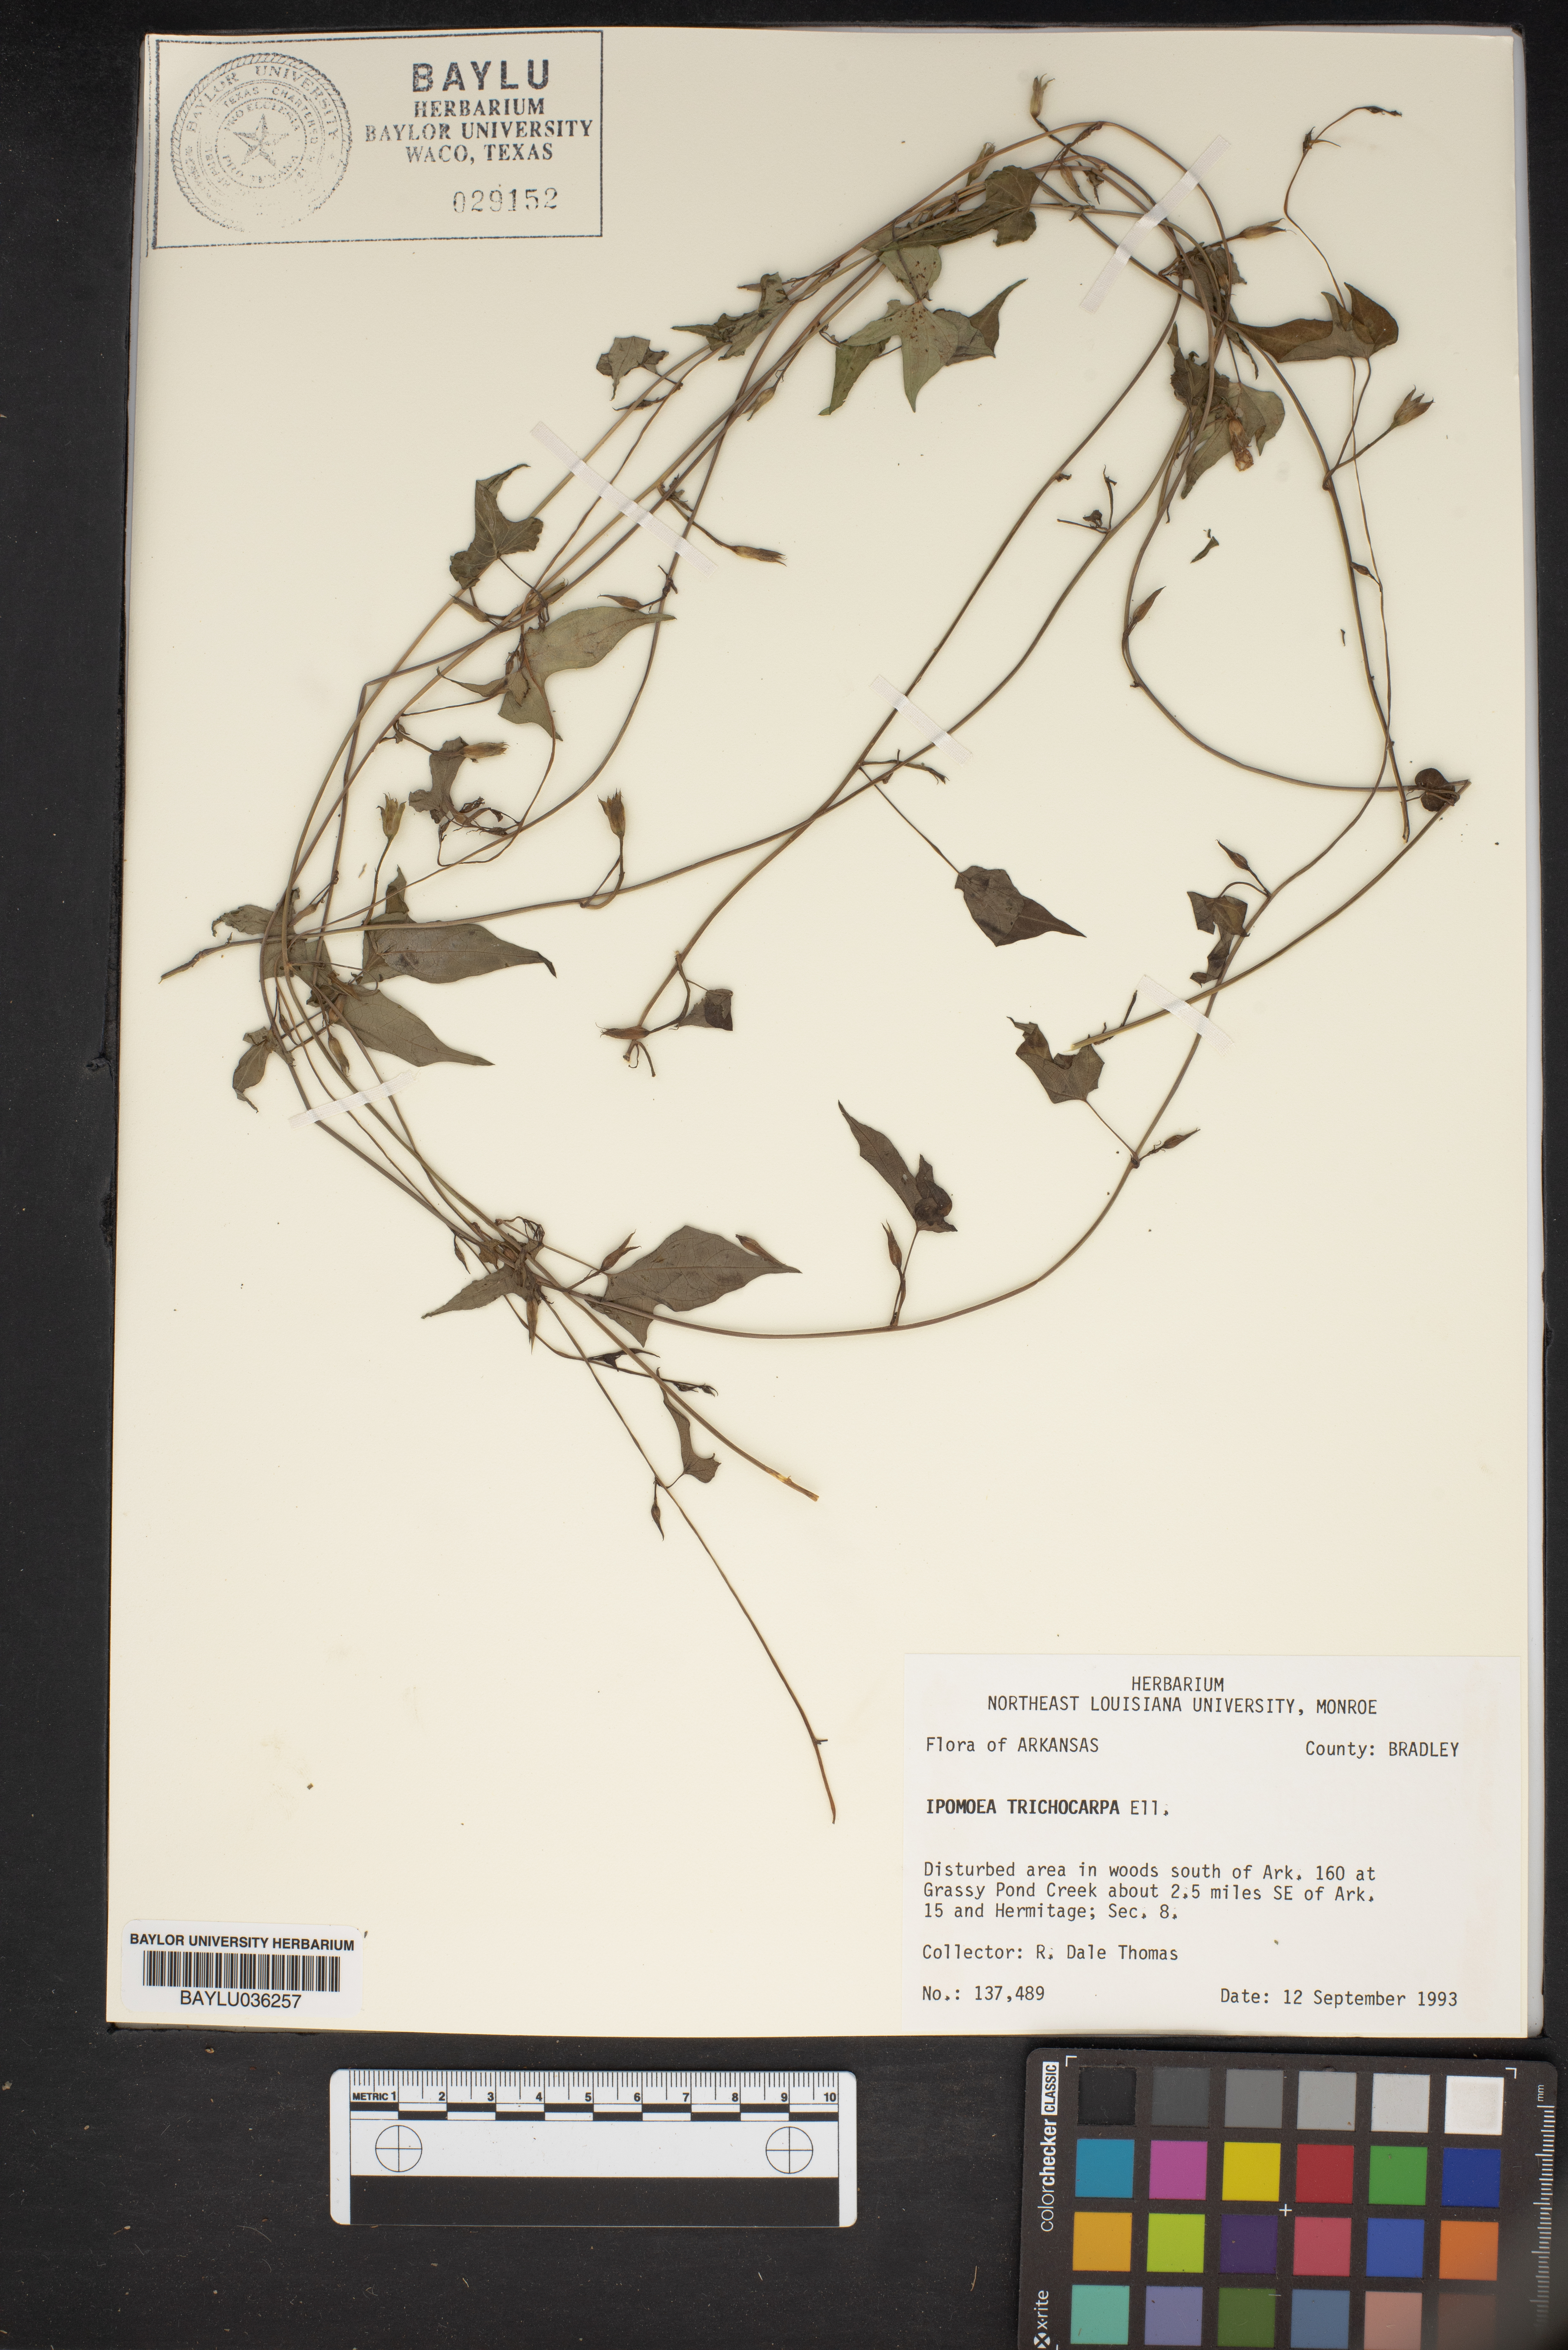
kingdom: Plantae
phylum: Tracheophyta
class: Magnoliopsida
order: Solanales
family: Convolvulaceae
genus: Ipomoea
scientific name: Ipomoea cordatotriloba
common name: Cotton morning glory
